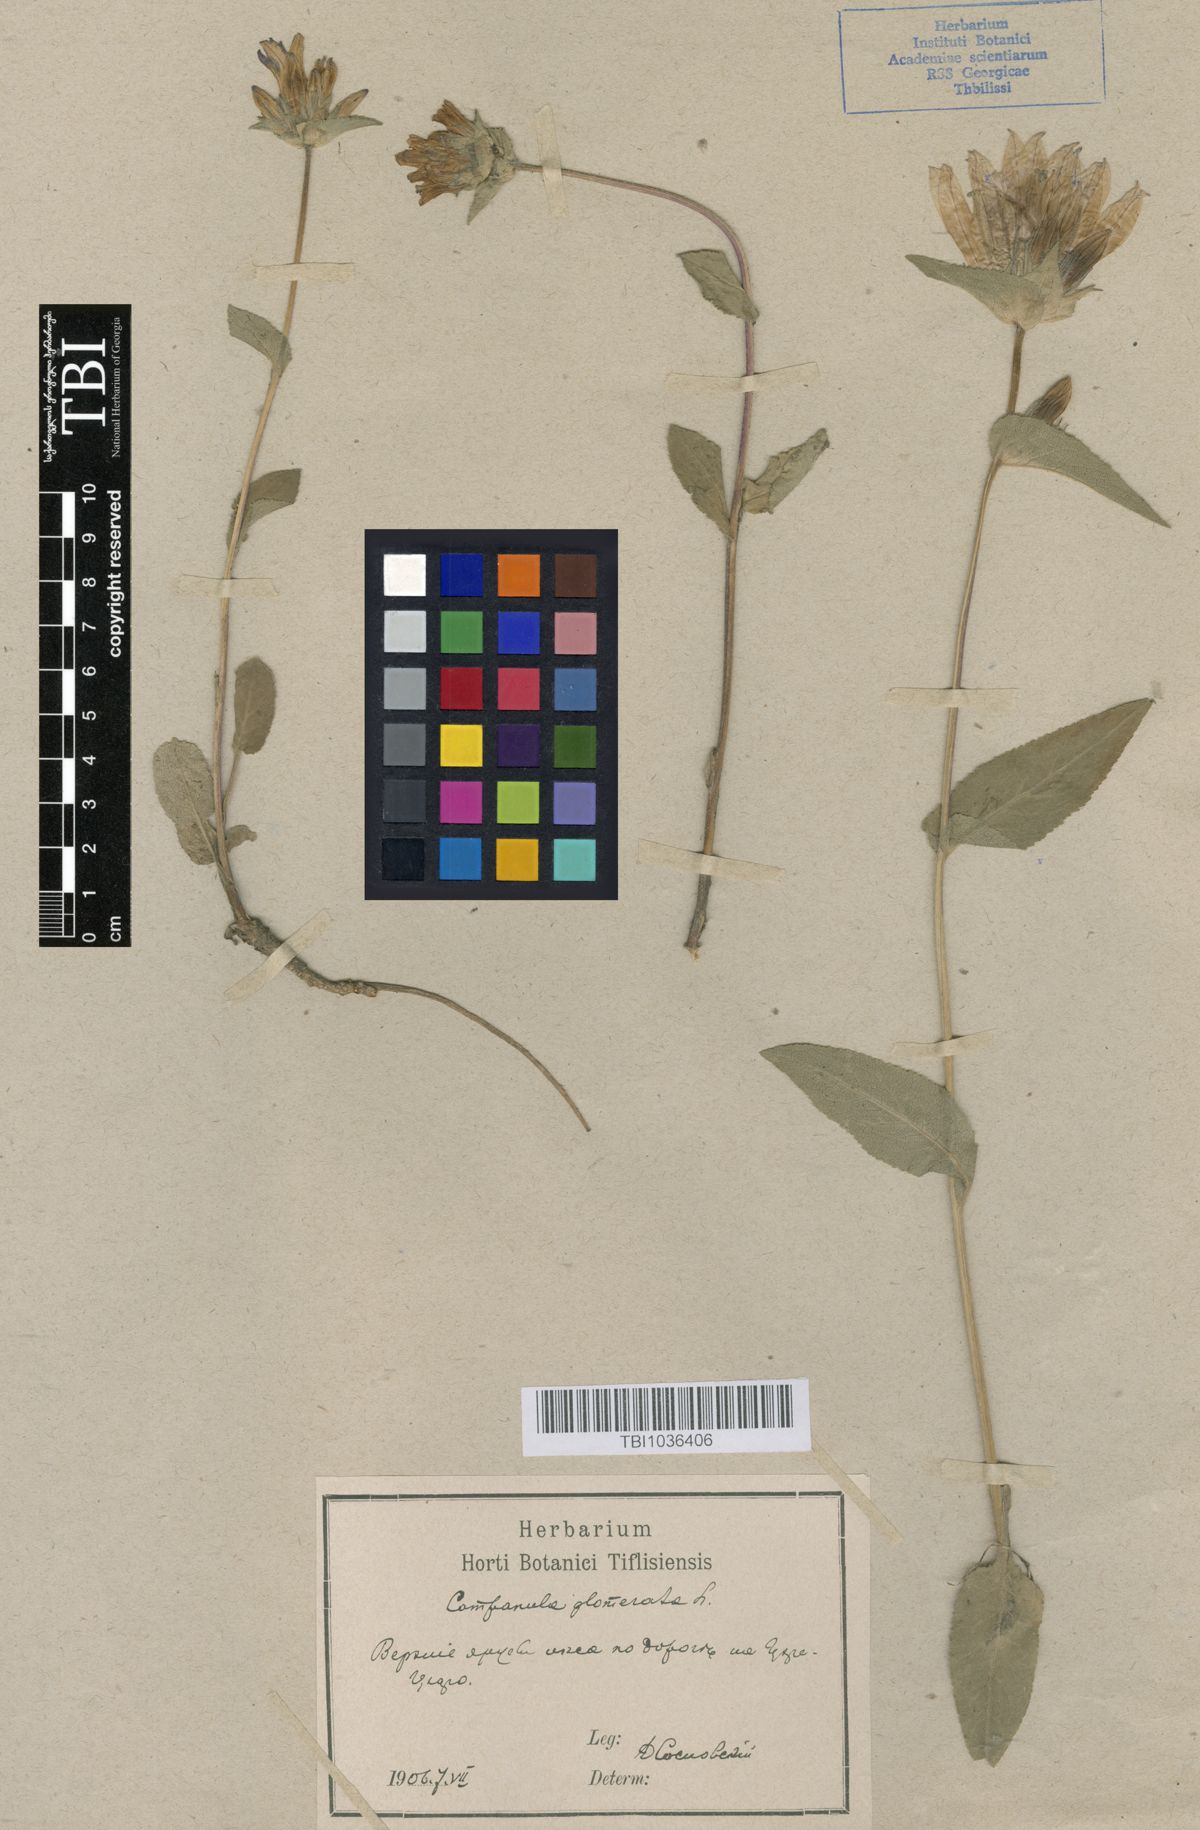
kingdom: Plantae
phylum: Tracheophyta
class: Magnoliopsida
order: Asterales
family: Campanulaceae
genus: Campanula
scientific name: Campanula glomerata
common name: Clustered bellflower
